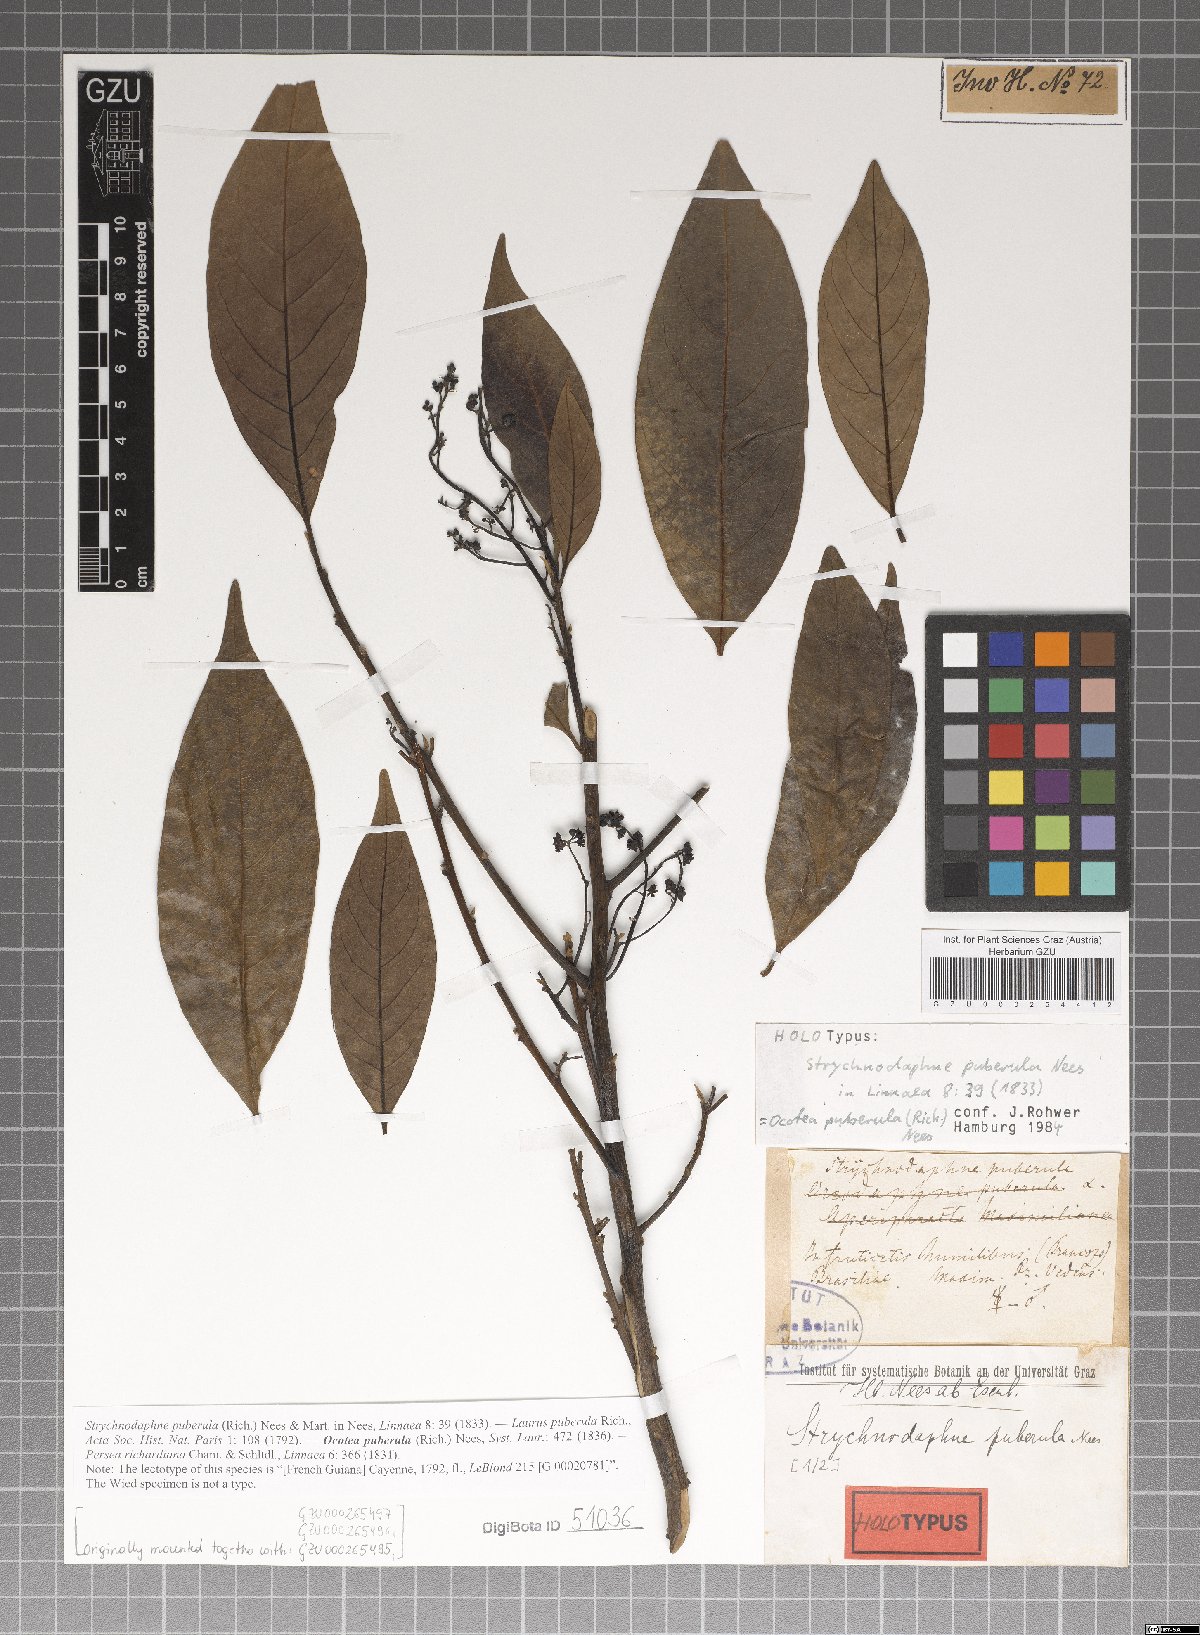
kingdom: Plantae
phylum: Tracheophyta
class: Magnoliopsida
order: Laurales
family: Lauraceae
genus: Ocotea
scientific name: Ocotea puberula
